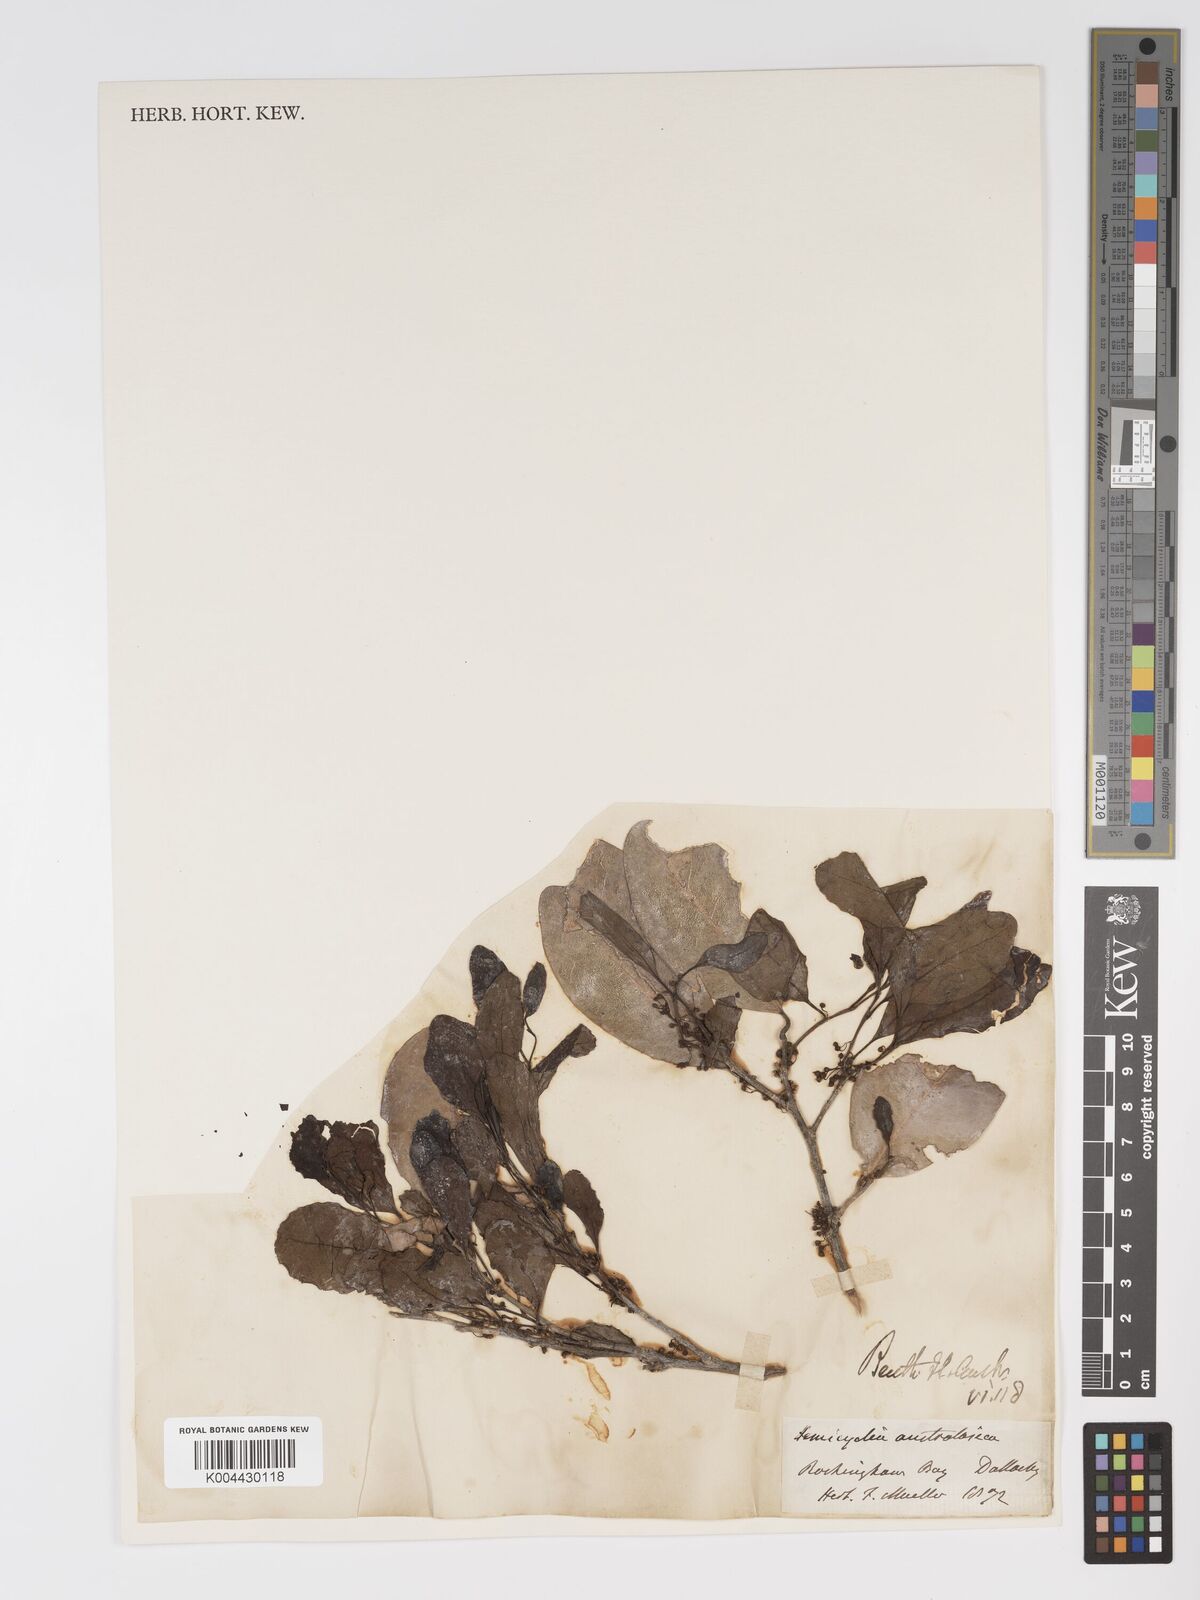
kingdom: Plantae
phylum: Tracheophyta
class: Magnoliopsida
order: Malpighiales
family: Putranjivaceae
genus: Drypetes
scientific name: Drypetes deplanchei
